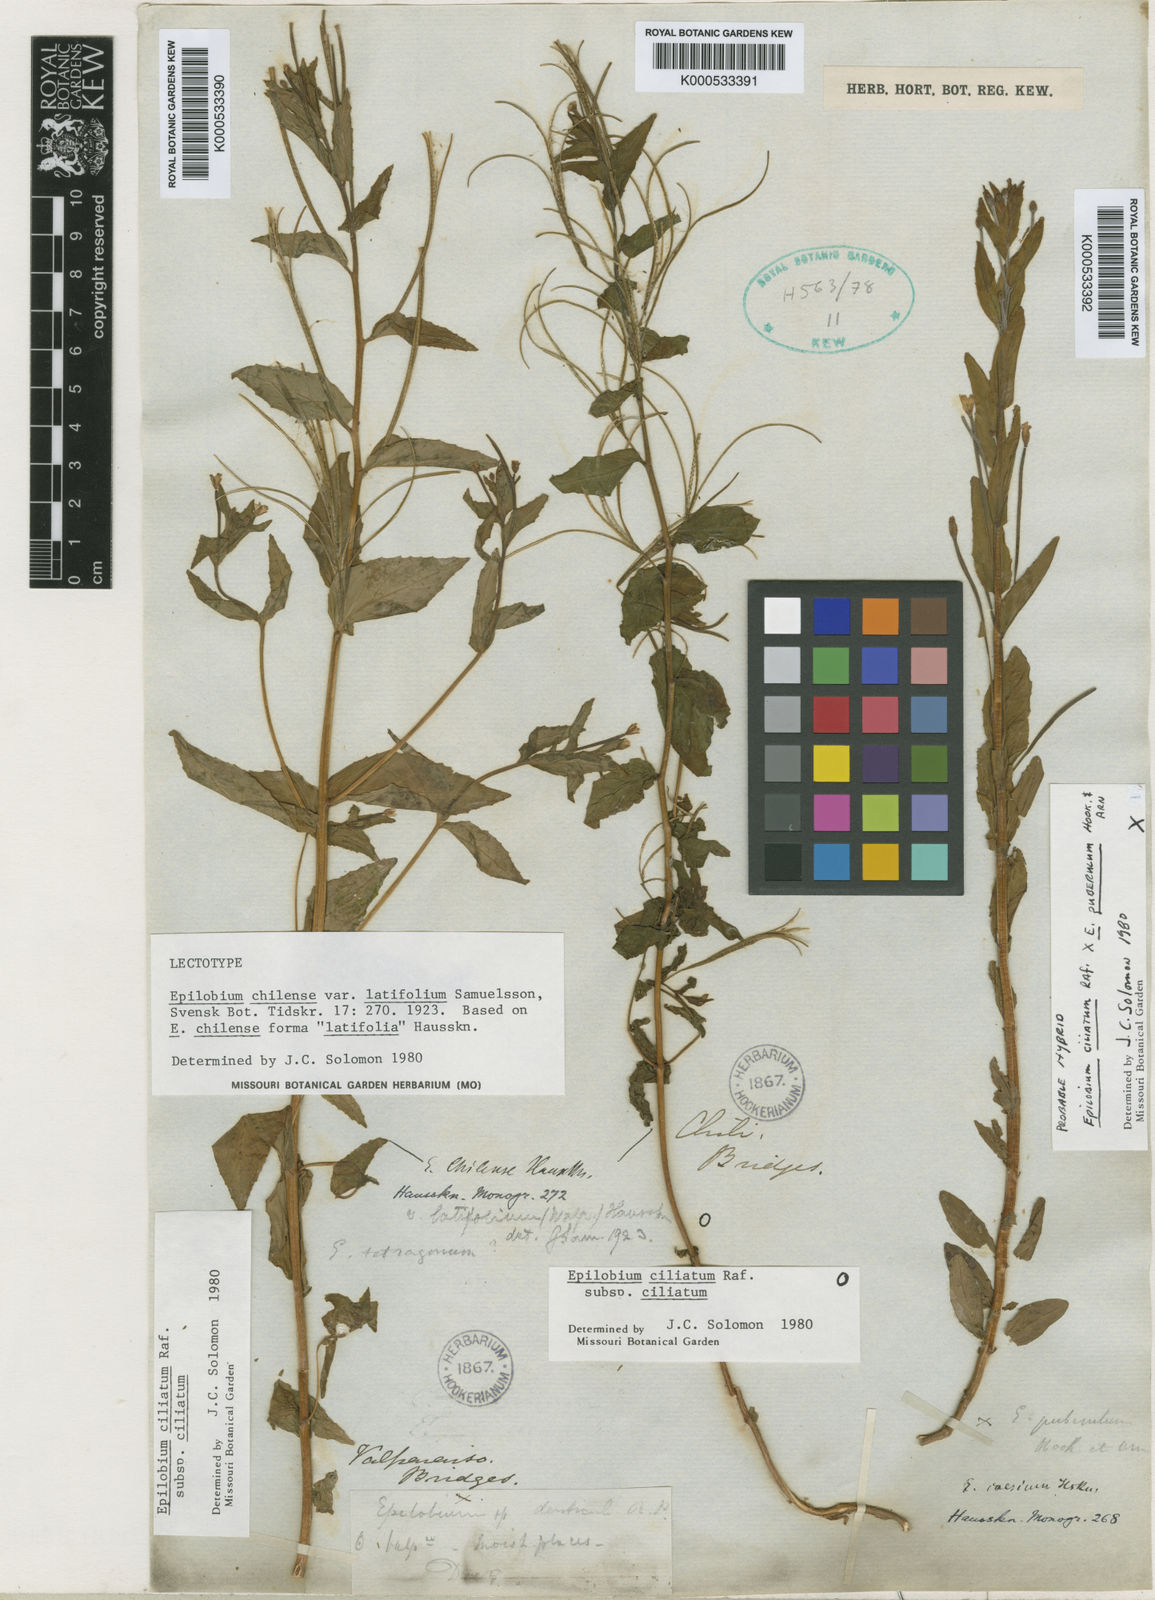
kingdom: Plantae
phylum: Tracheophyta
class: Magnoliopsida
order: Myrtales
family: Onagraceae
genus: Epilobium
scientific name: Epilobium ciliatum
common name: American willowherb
